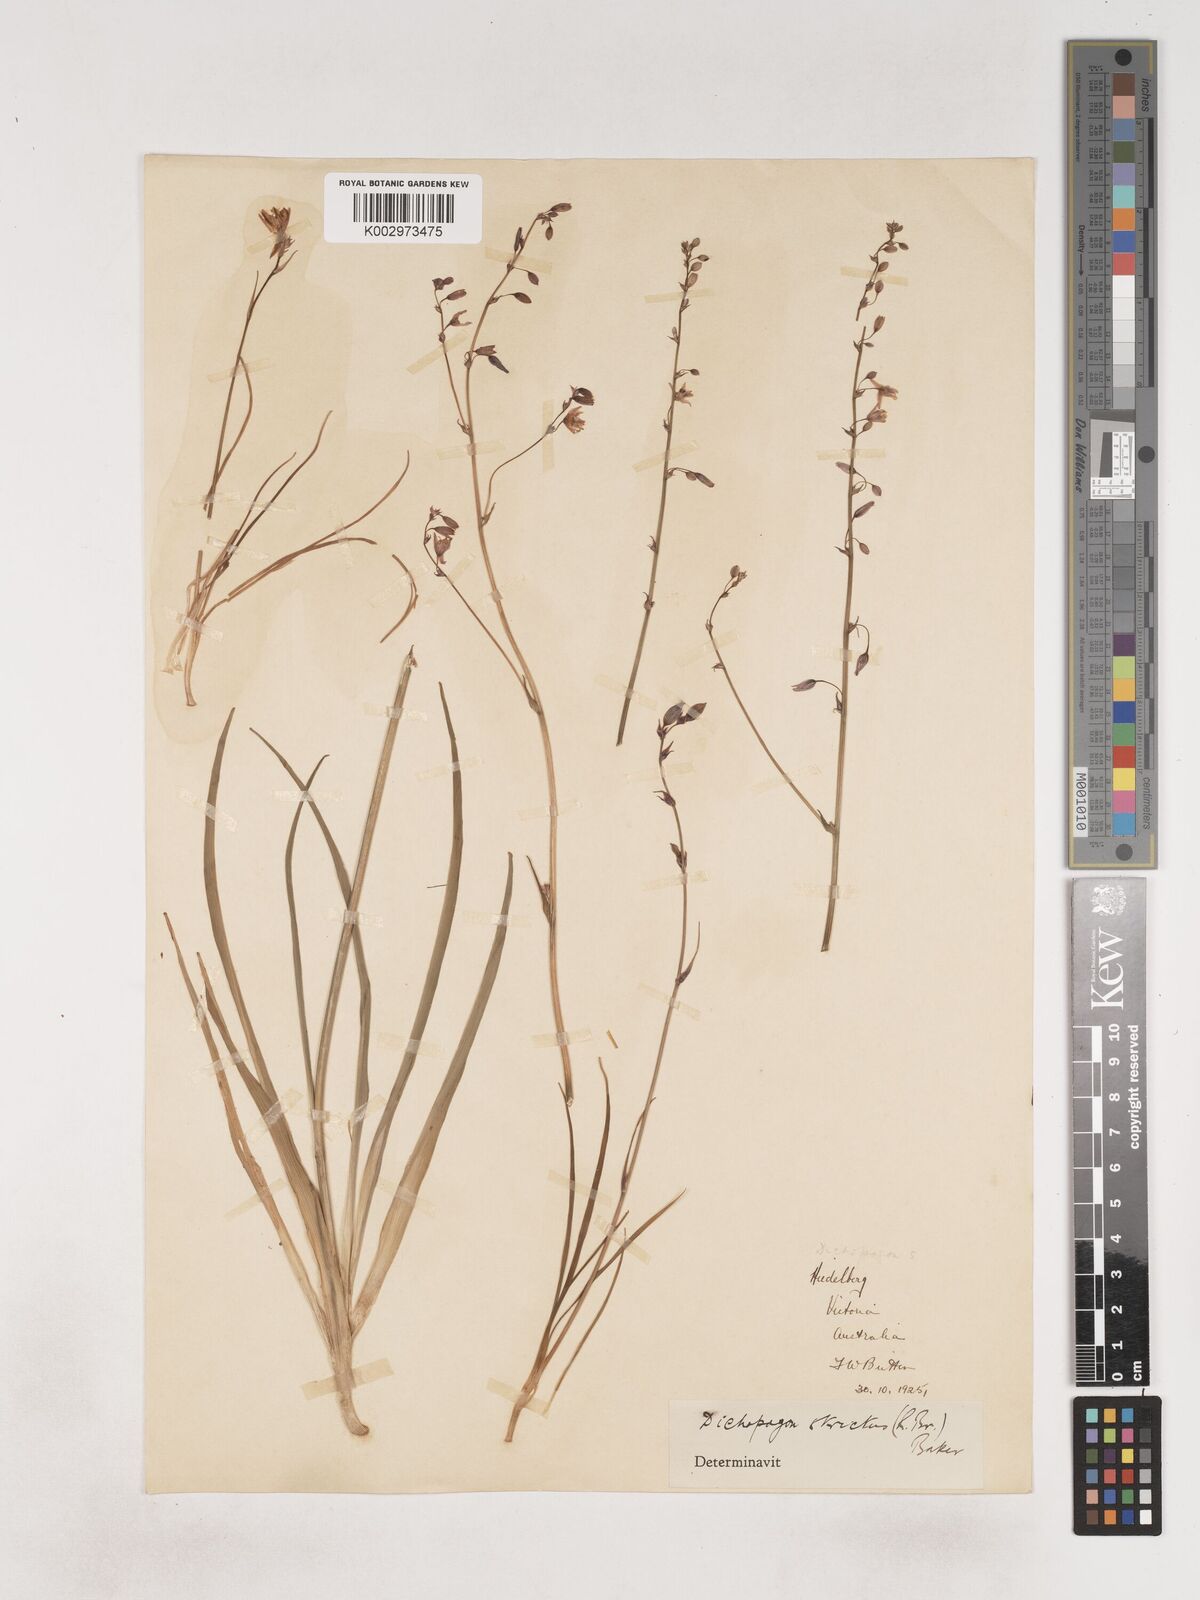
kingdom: Plantae
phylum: Tracheophyta
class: Liliopsida
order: Asparagales
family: Asparagaceae
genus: Arthropodium
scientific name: Arthropodium strictum
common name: Chocolate-lily
